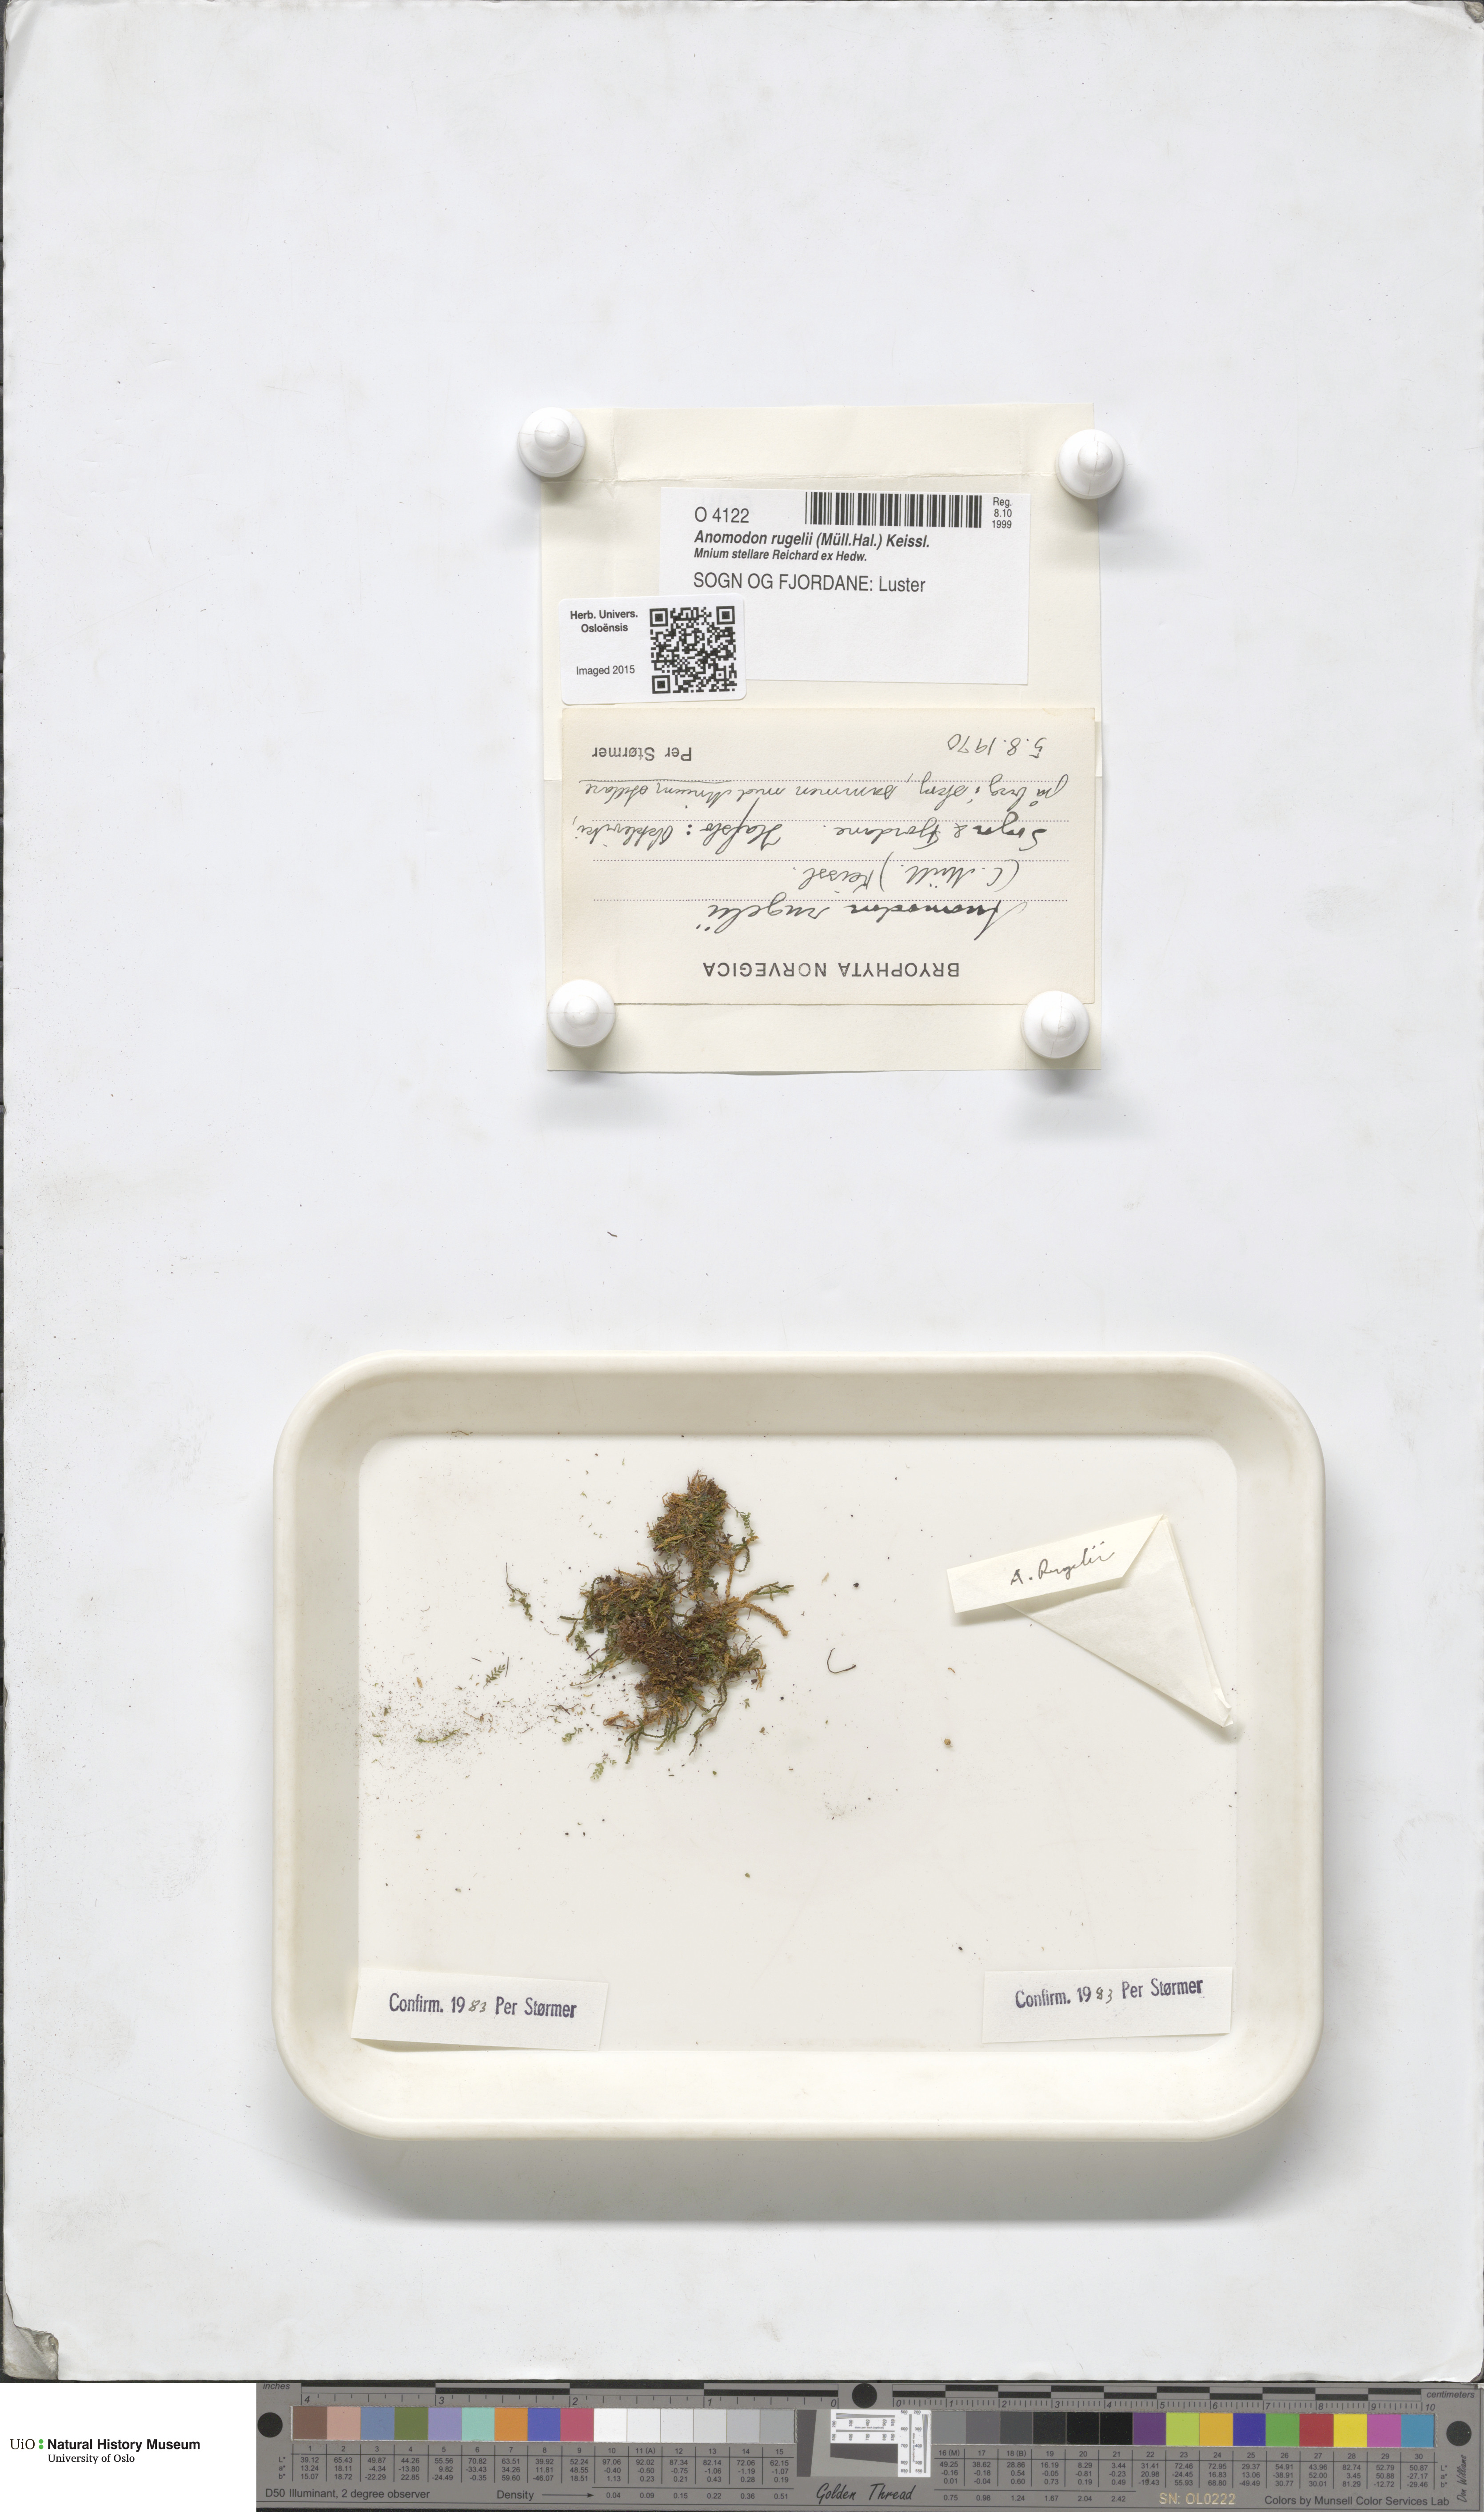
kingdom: Plantae
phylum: Bryophyta
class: Bryopsida
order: Hypnales
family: Anomodontaceae
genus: Anomodontopsis
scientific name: Anomodontopsis rugelii
